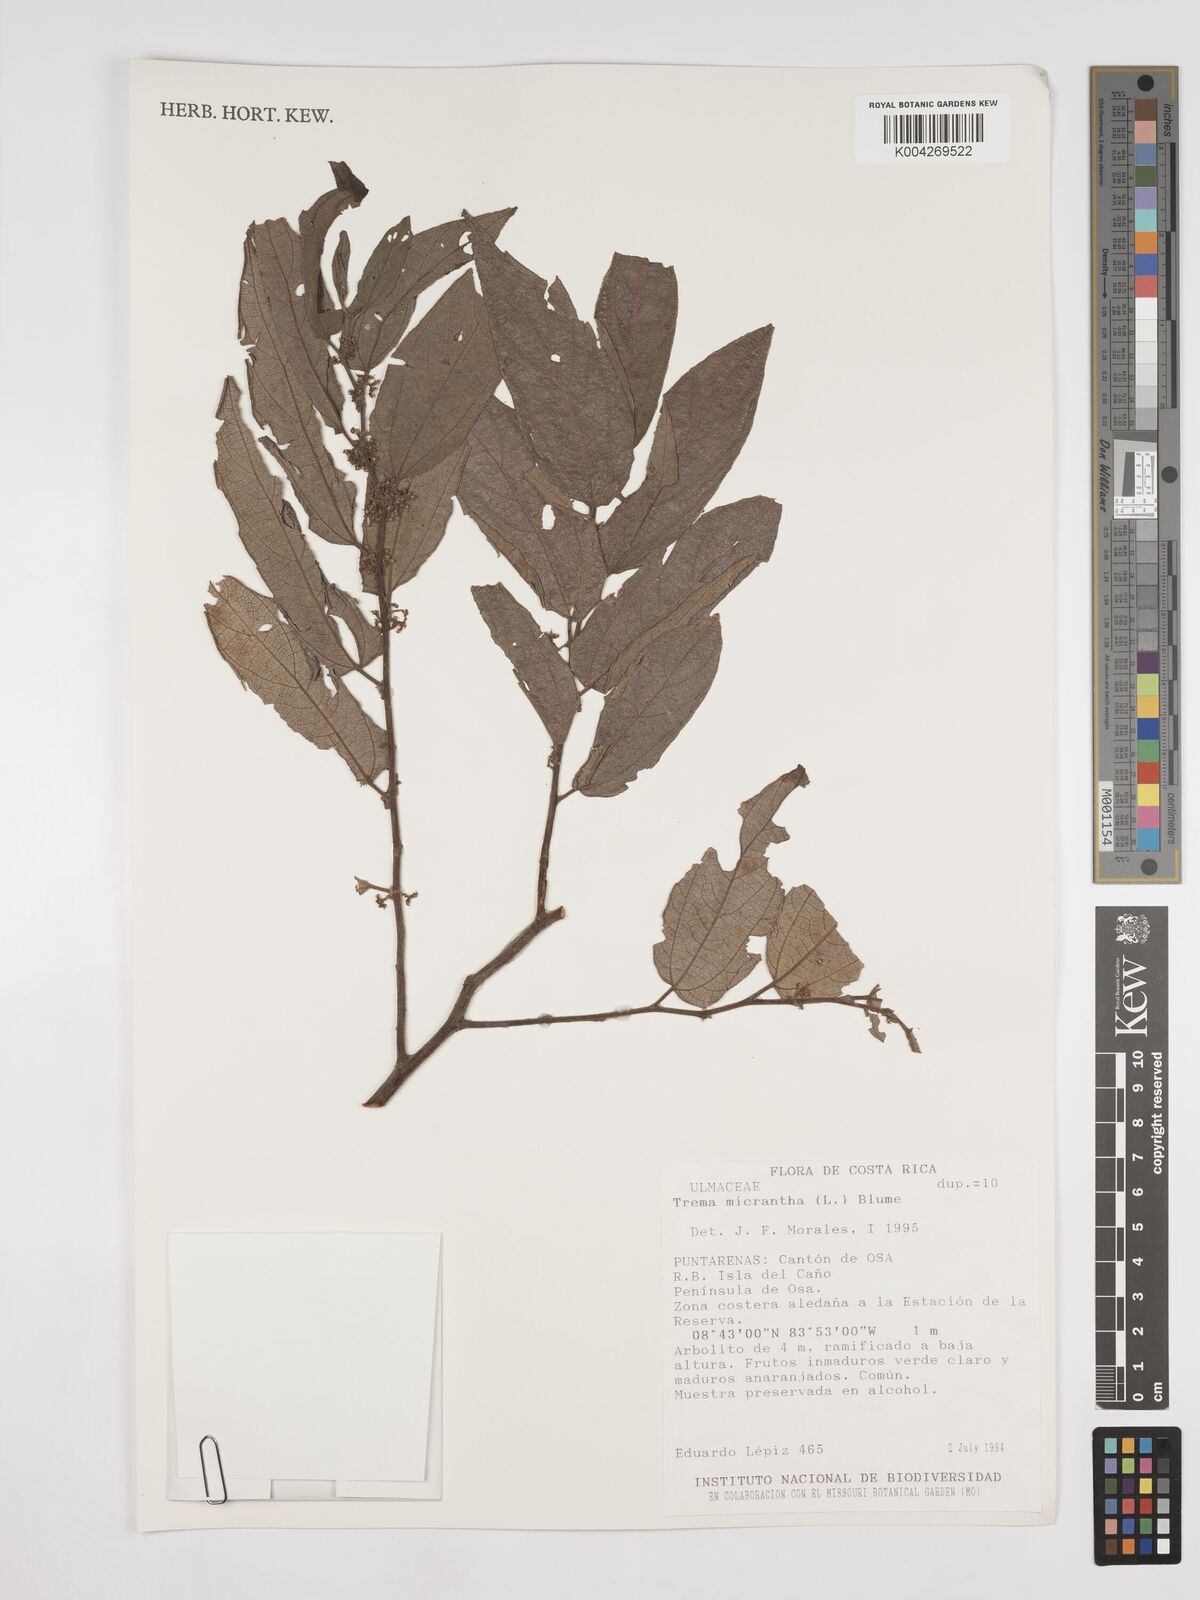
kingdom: Plantae
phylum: Tracheophyta
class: Magnoliopsida
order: Rosales
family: Cannabaceae
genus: Trema
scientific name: Trema micranthum
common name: Jamaican nettletree
